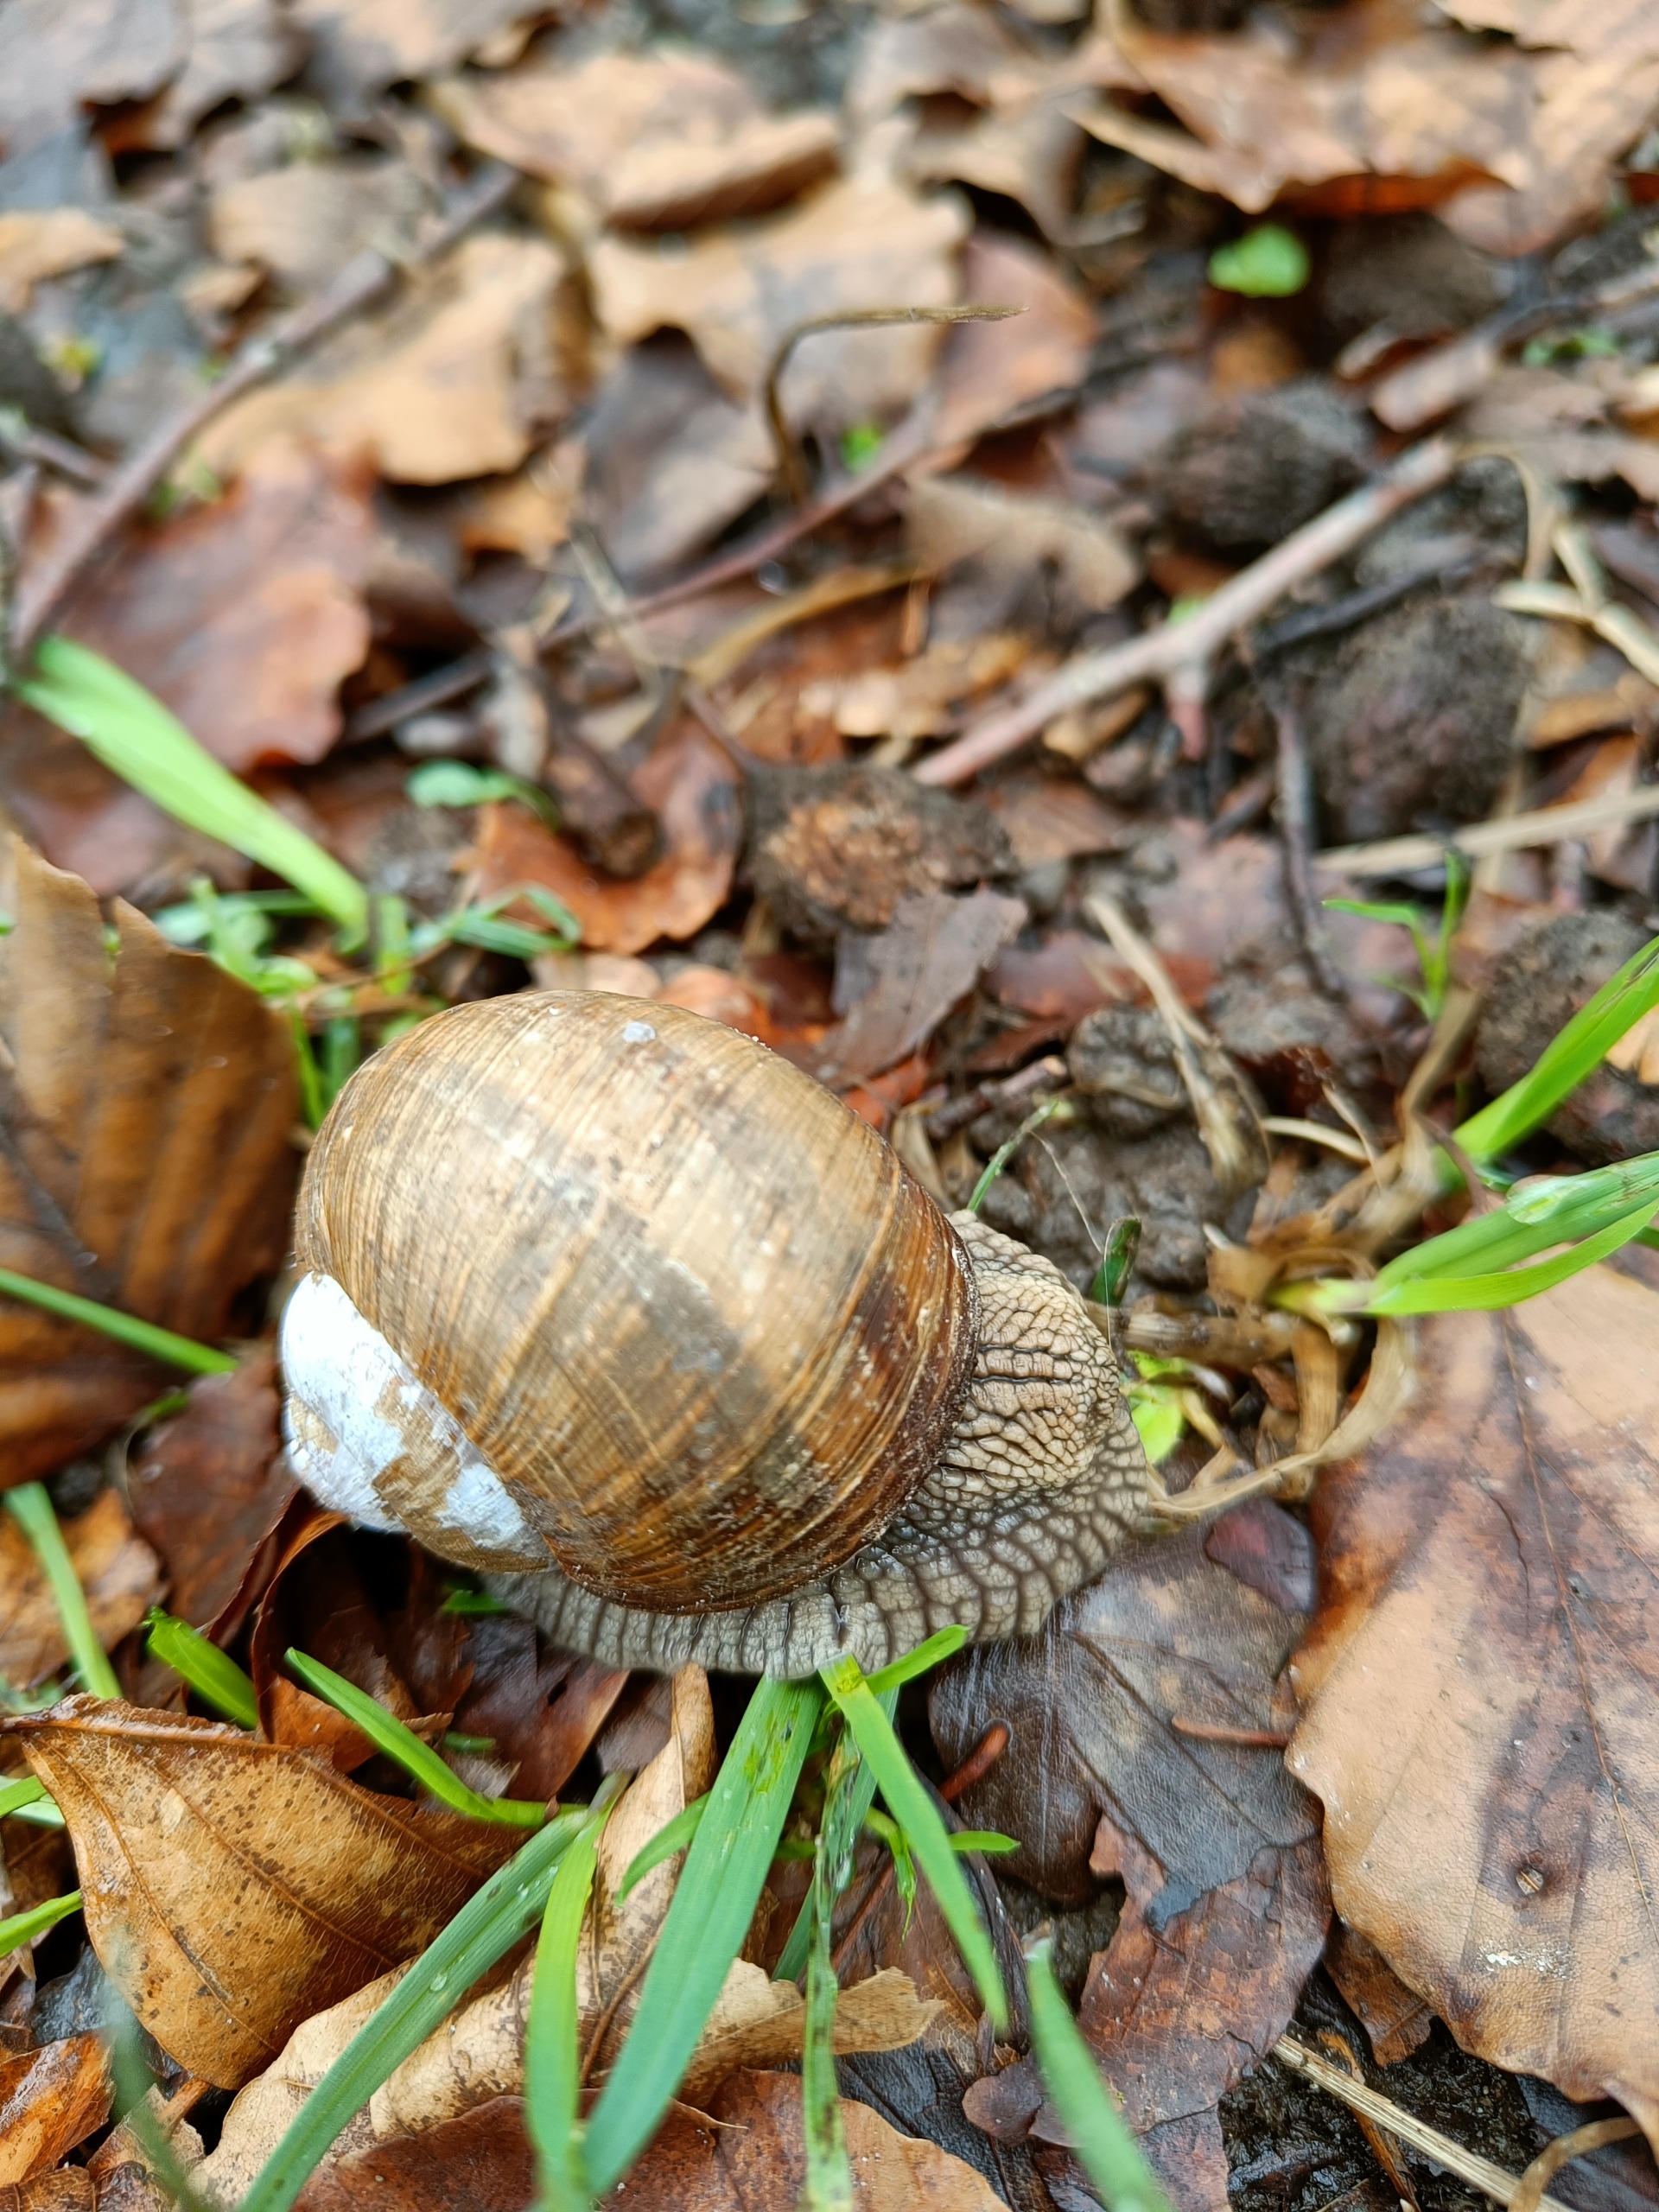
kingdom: Animalia
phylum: Mollusca
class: Gastropoda
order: Stylommatophora
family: Helicidae
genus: Helix
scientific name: Helix pomatia
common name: Vinbjergsnegl
